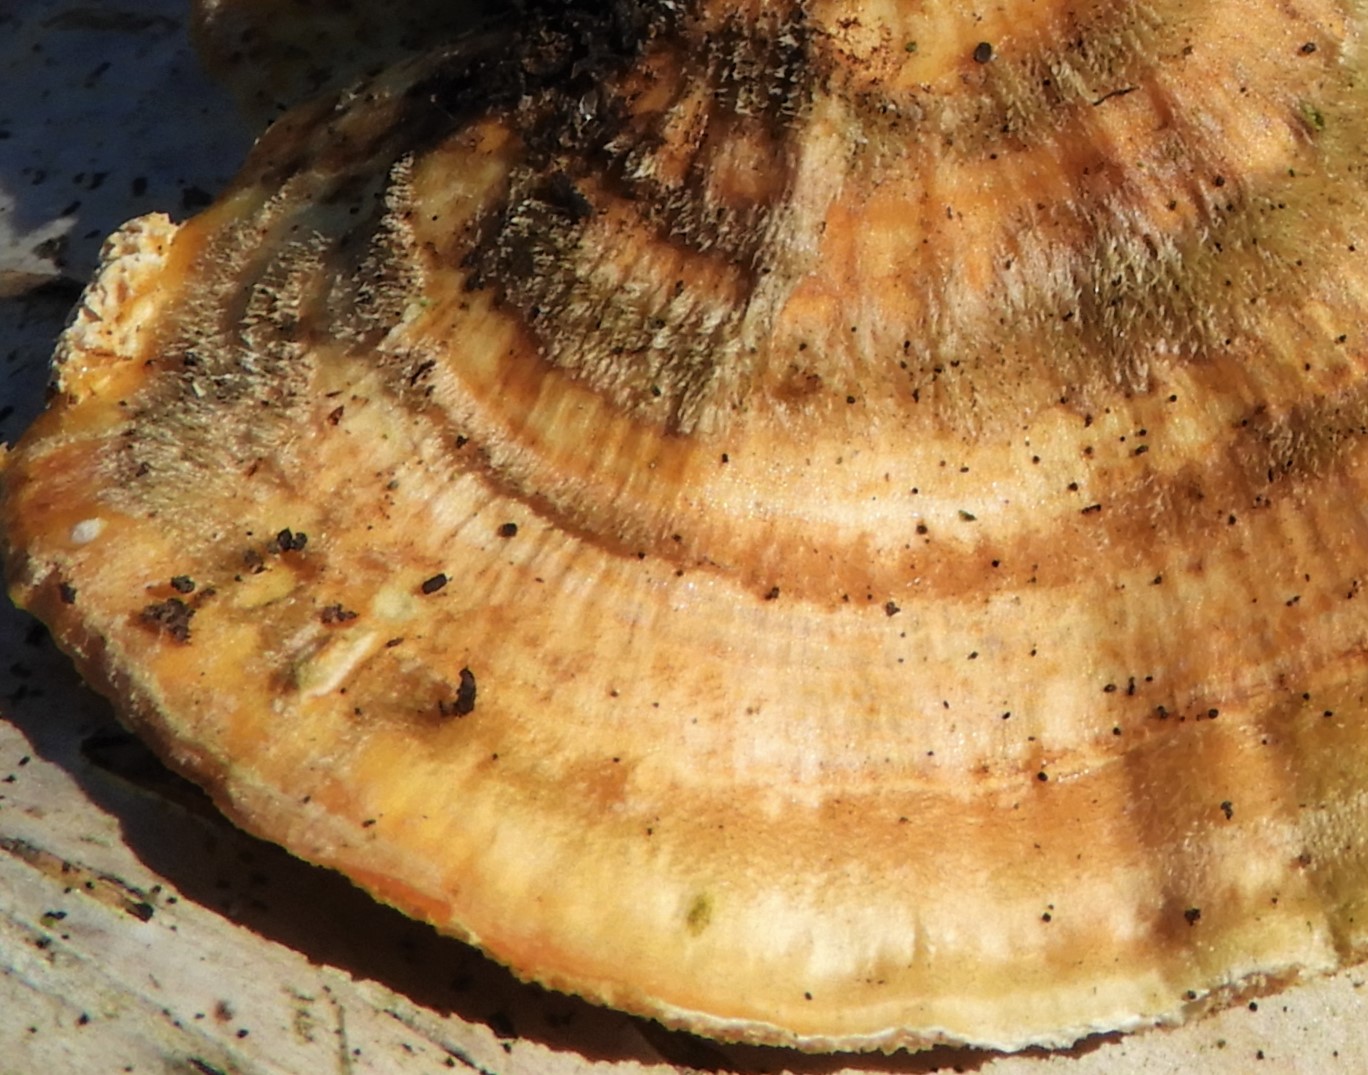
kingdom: Fungi
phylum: Basidiomycota
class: Agaricomycetes
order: Polyporales
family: Polyporaceae
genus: Trametes
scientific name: Trametes ochracea
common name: bæltet læderporesvamp
